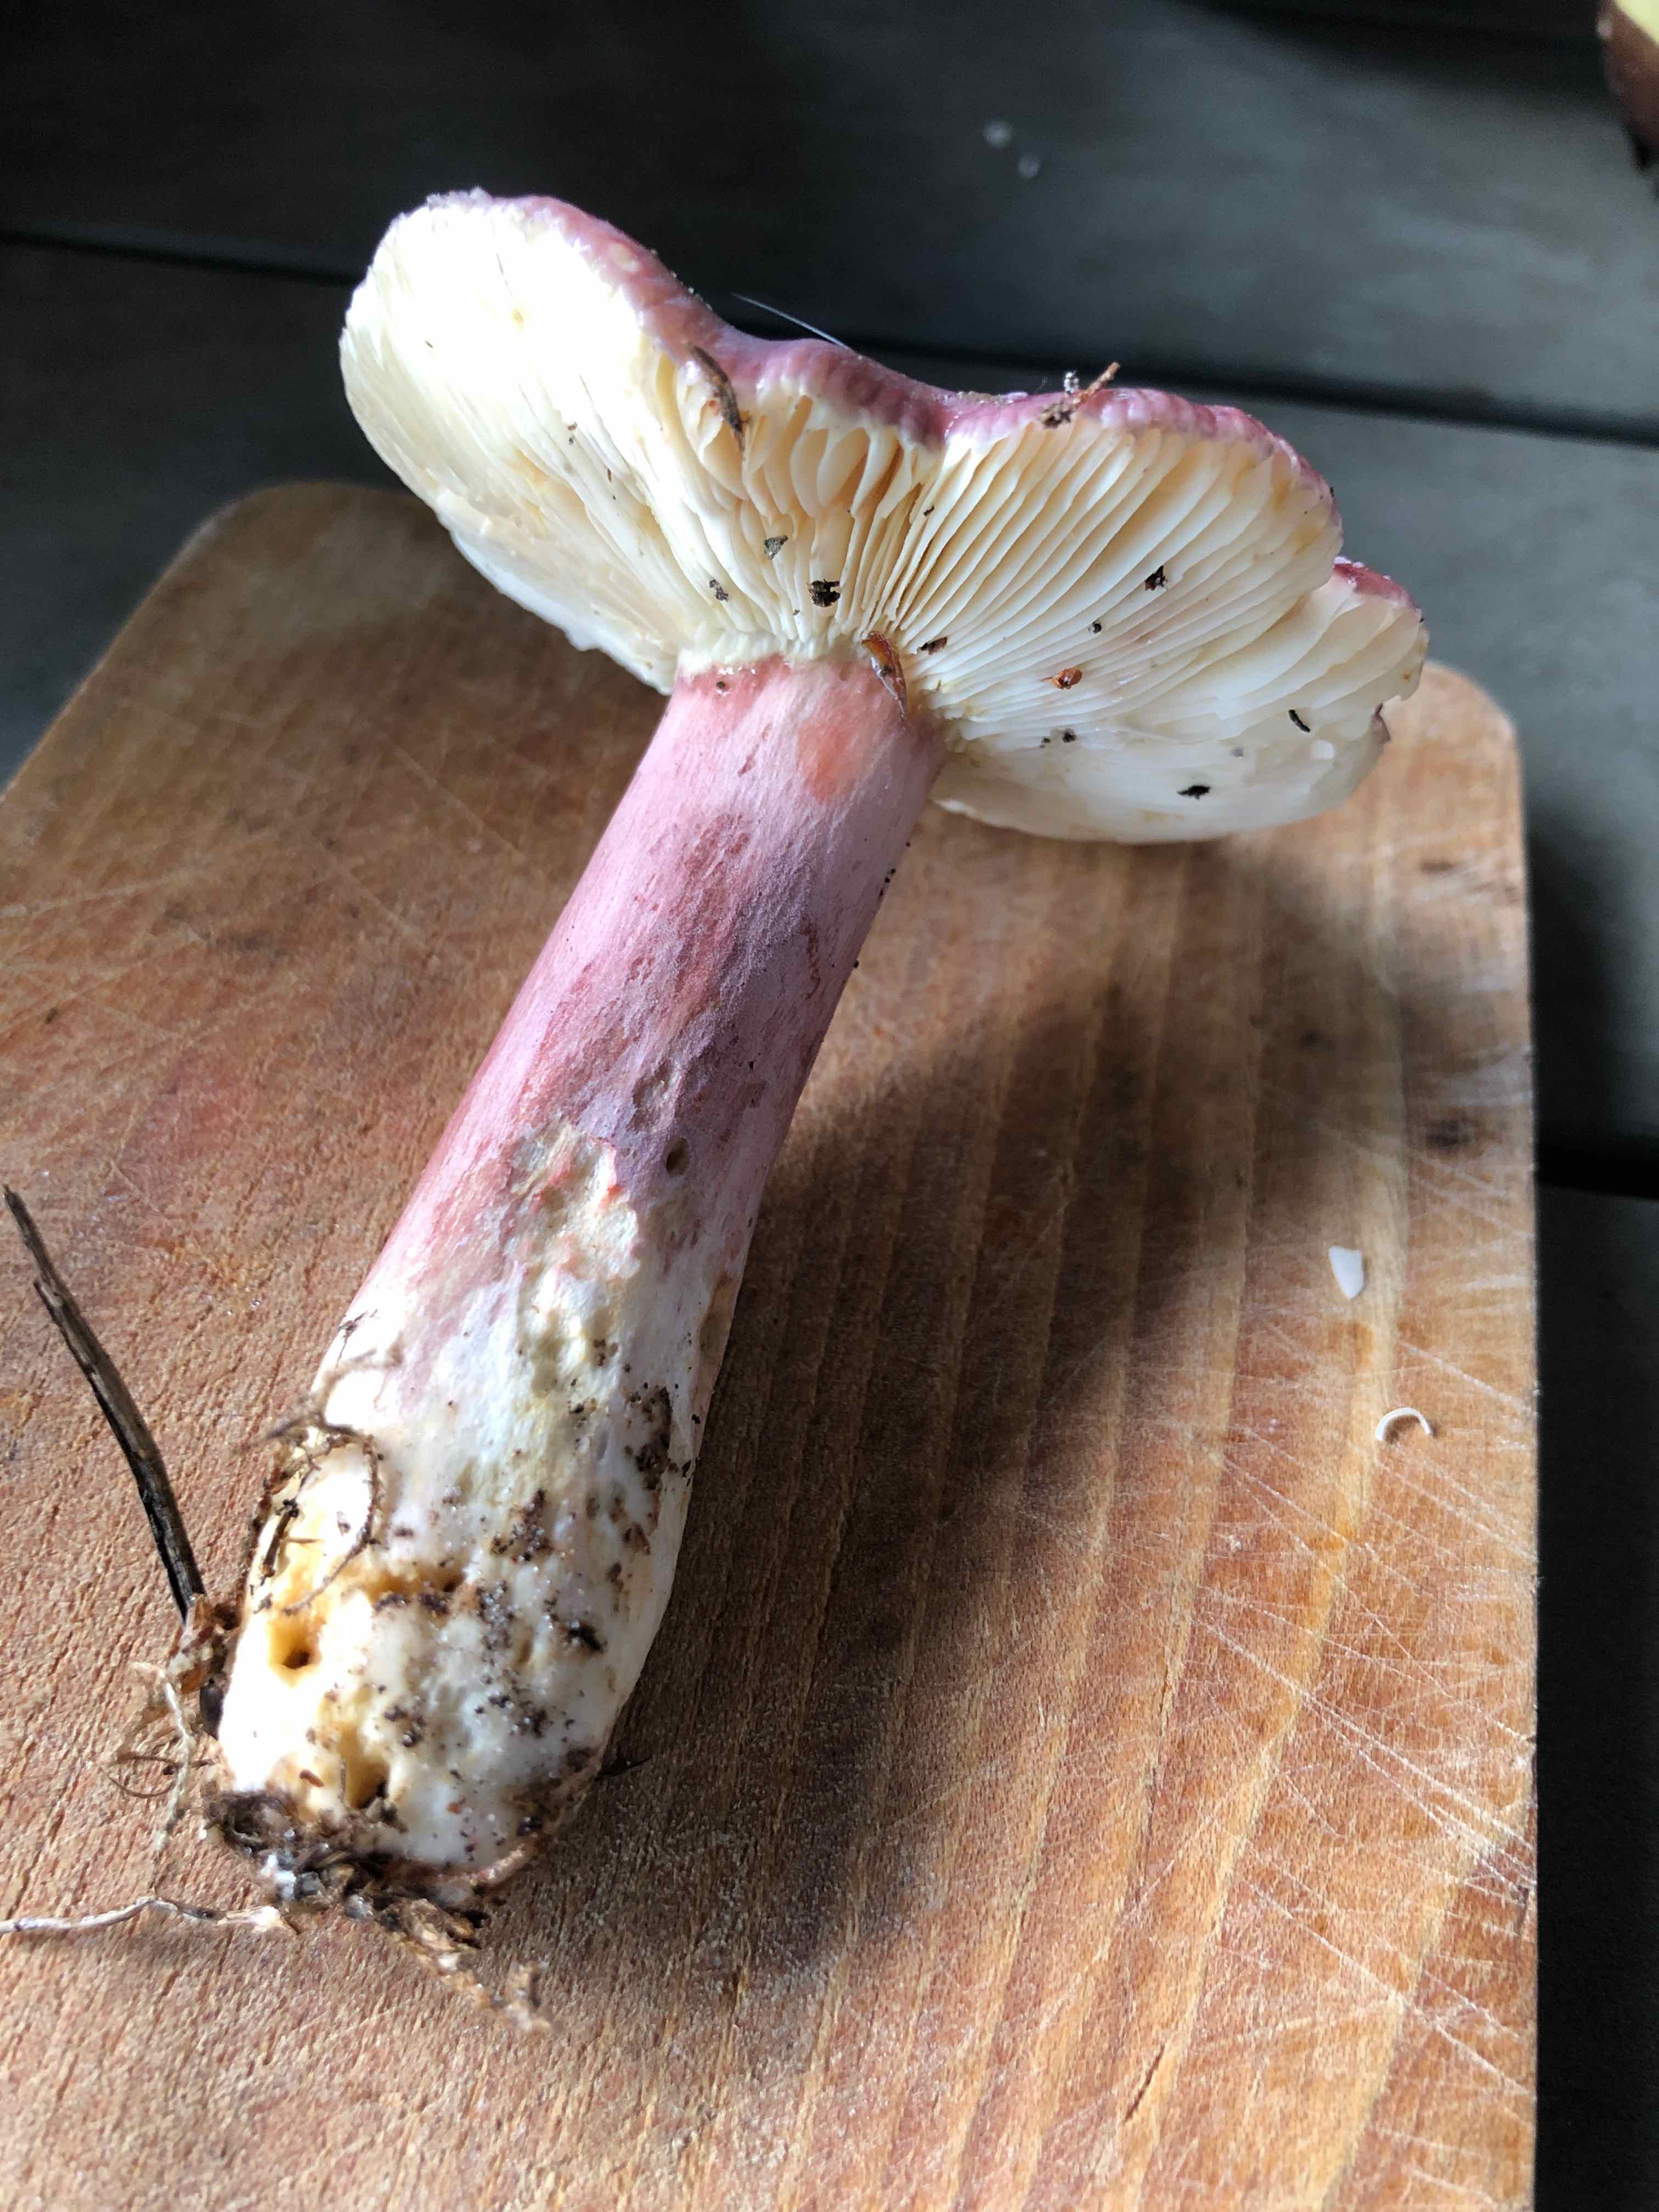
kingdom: Fungi
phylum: Basidiomycota
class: Agaricomycetes
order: Russulales
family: Russulaceae
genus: Russula
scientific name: Russula
